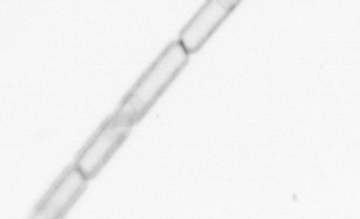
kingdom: Chromista
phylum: Ochrophyta
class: Bacillariophyceae
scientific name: Bacillariophyceae
